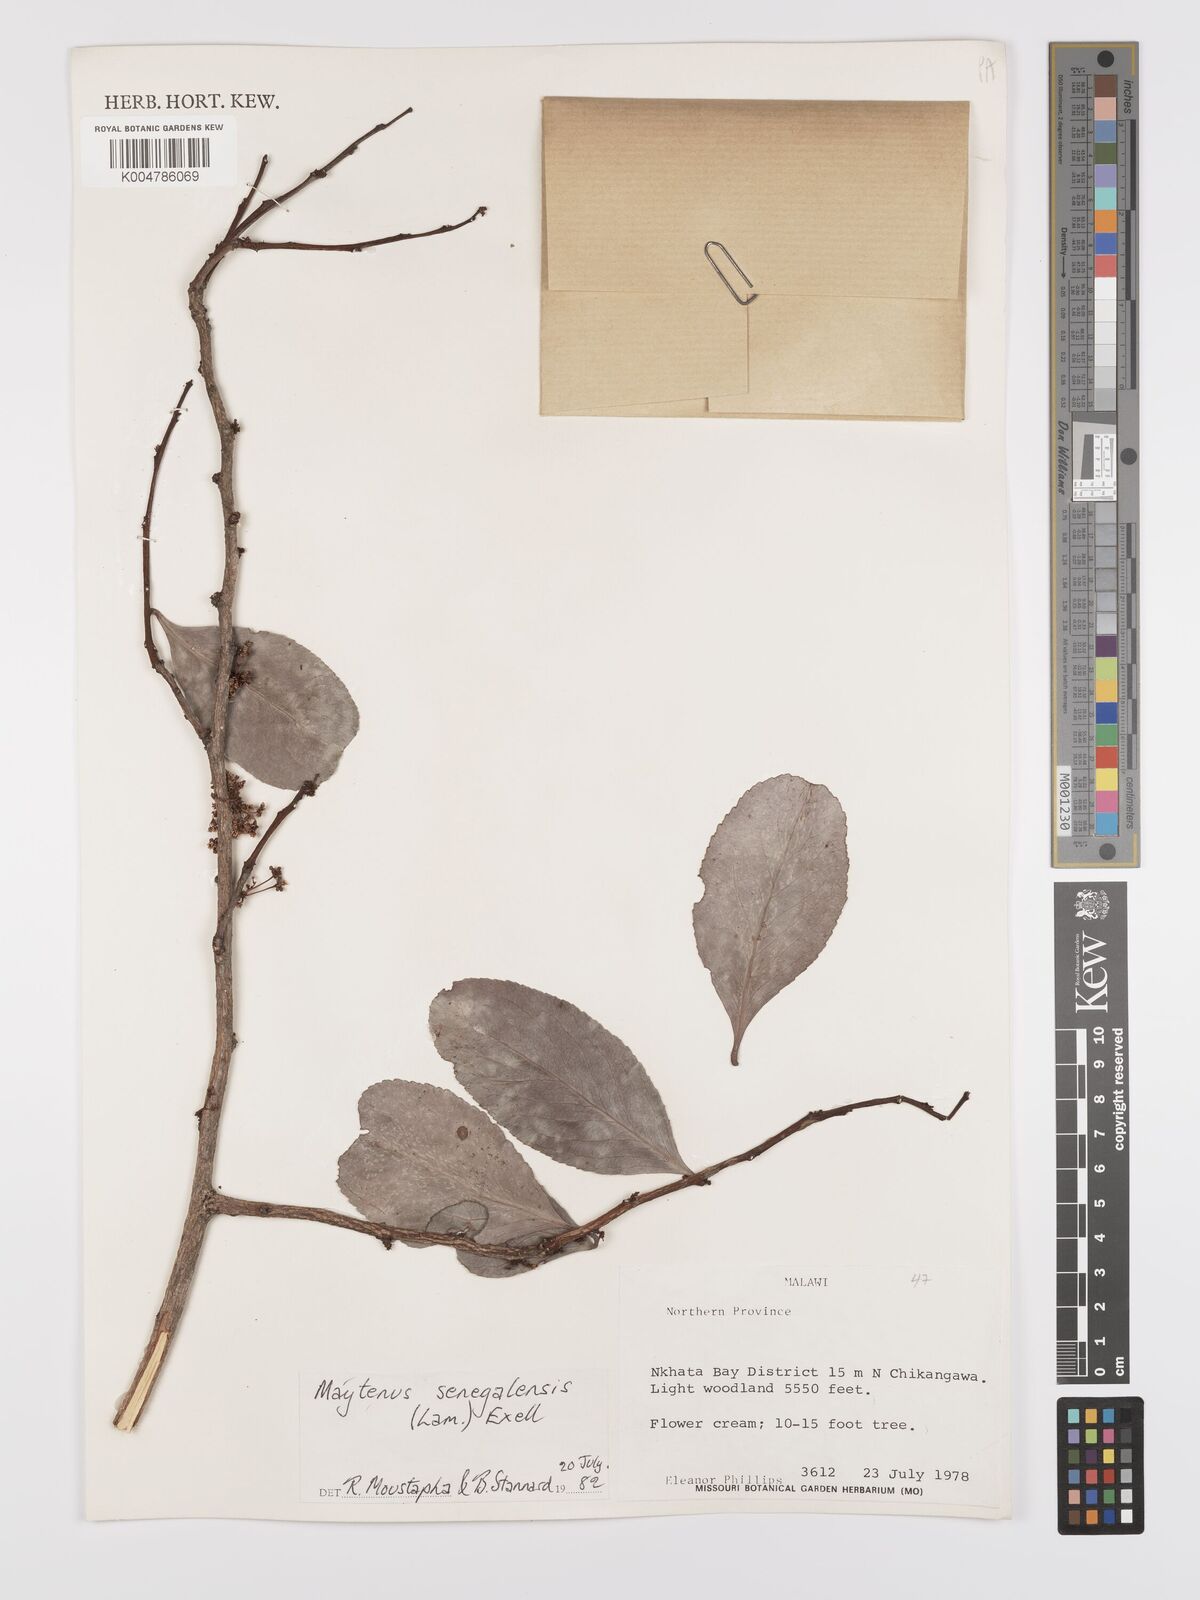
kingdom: Plantae
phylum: Tracheophyta
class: Magnoliopsida
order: Celastrales
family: Celastraceae
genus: Gymnosporia
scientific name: Gymnosporia senegalensis
